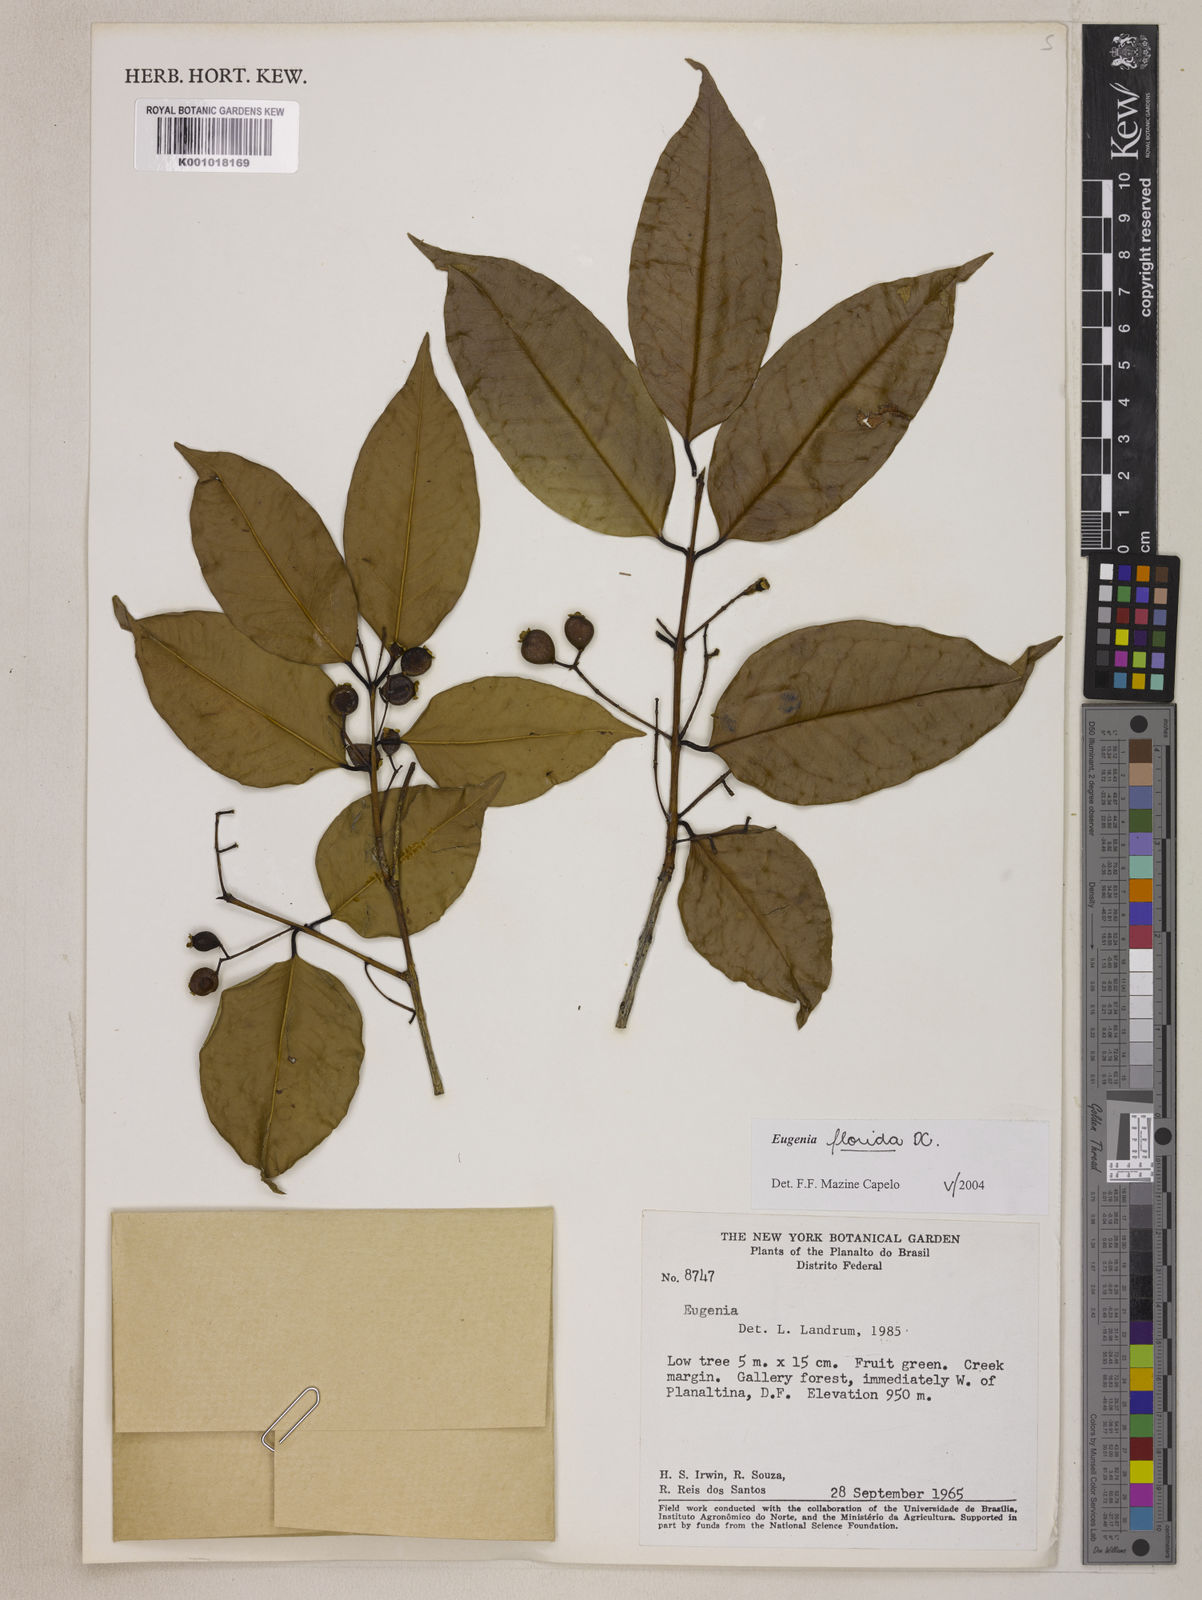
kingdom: Plantae
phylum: Tracheophyta
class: Magnoliopsida
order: Myrtales
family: Myrtaceae
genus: Eugenia
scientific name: Eugenia florida
